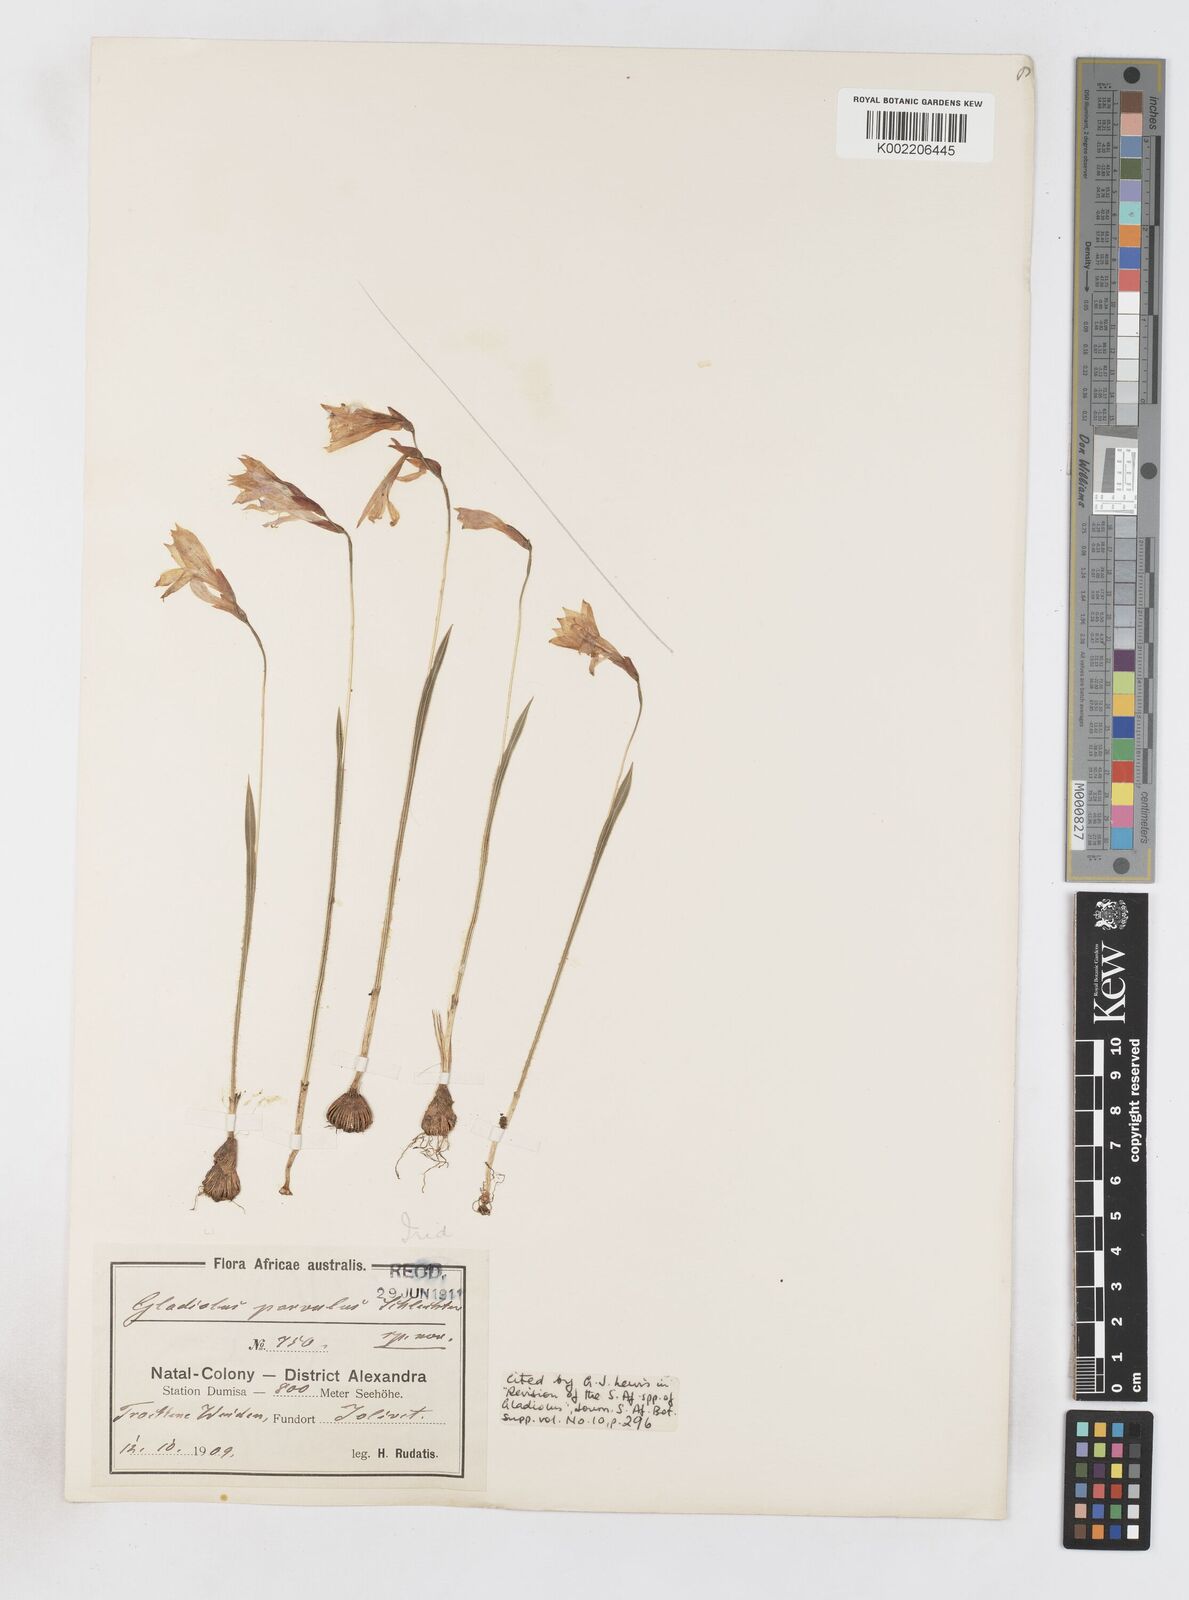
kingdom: Plantae
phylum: Tracheophyta
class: Liliopsida
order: Asparagales
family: Iridaceae
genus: Gladiolus
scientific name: Gladiolus parvulus
